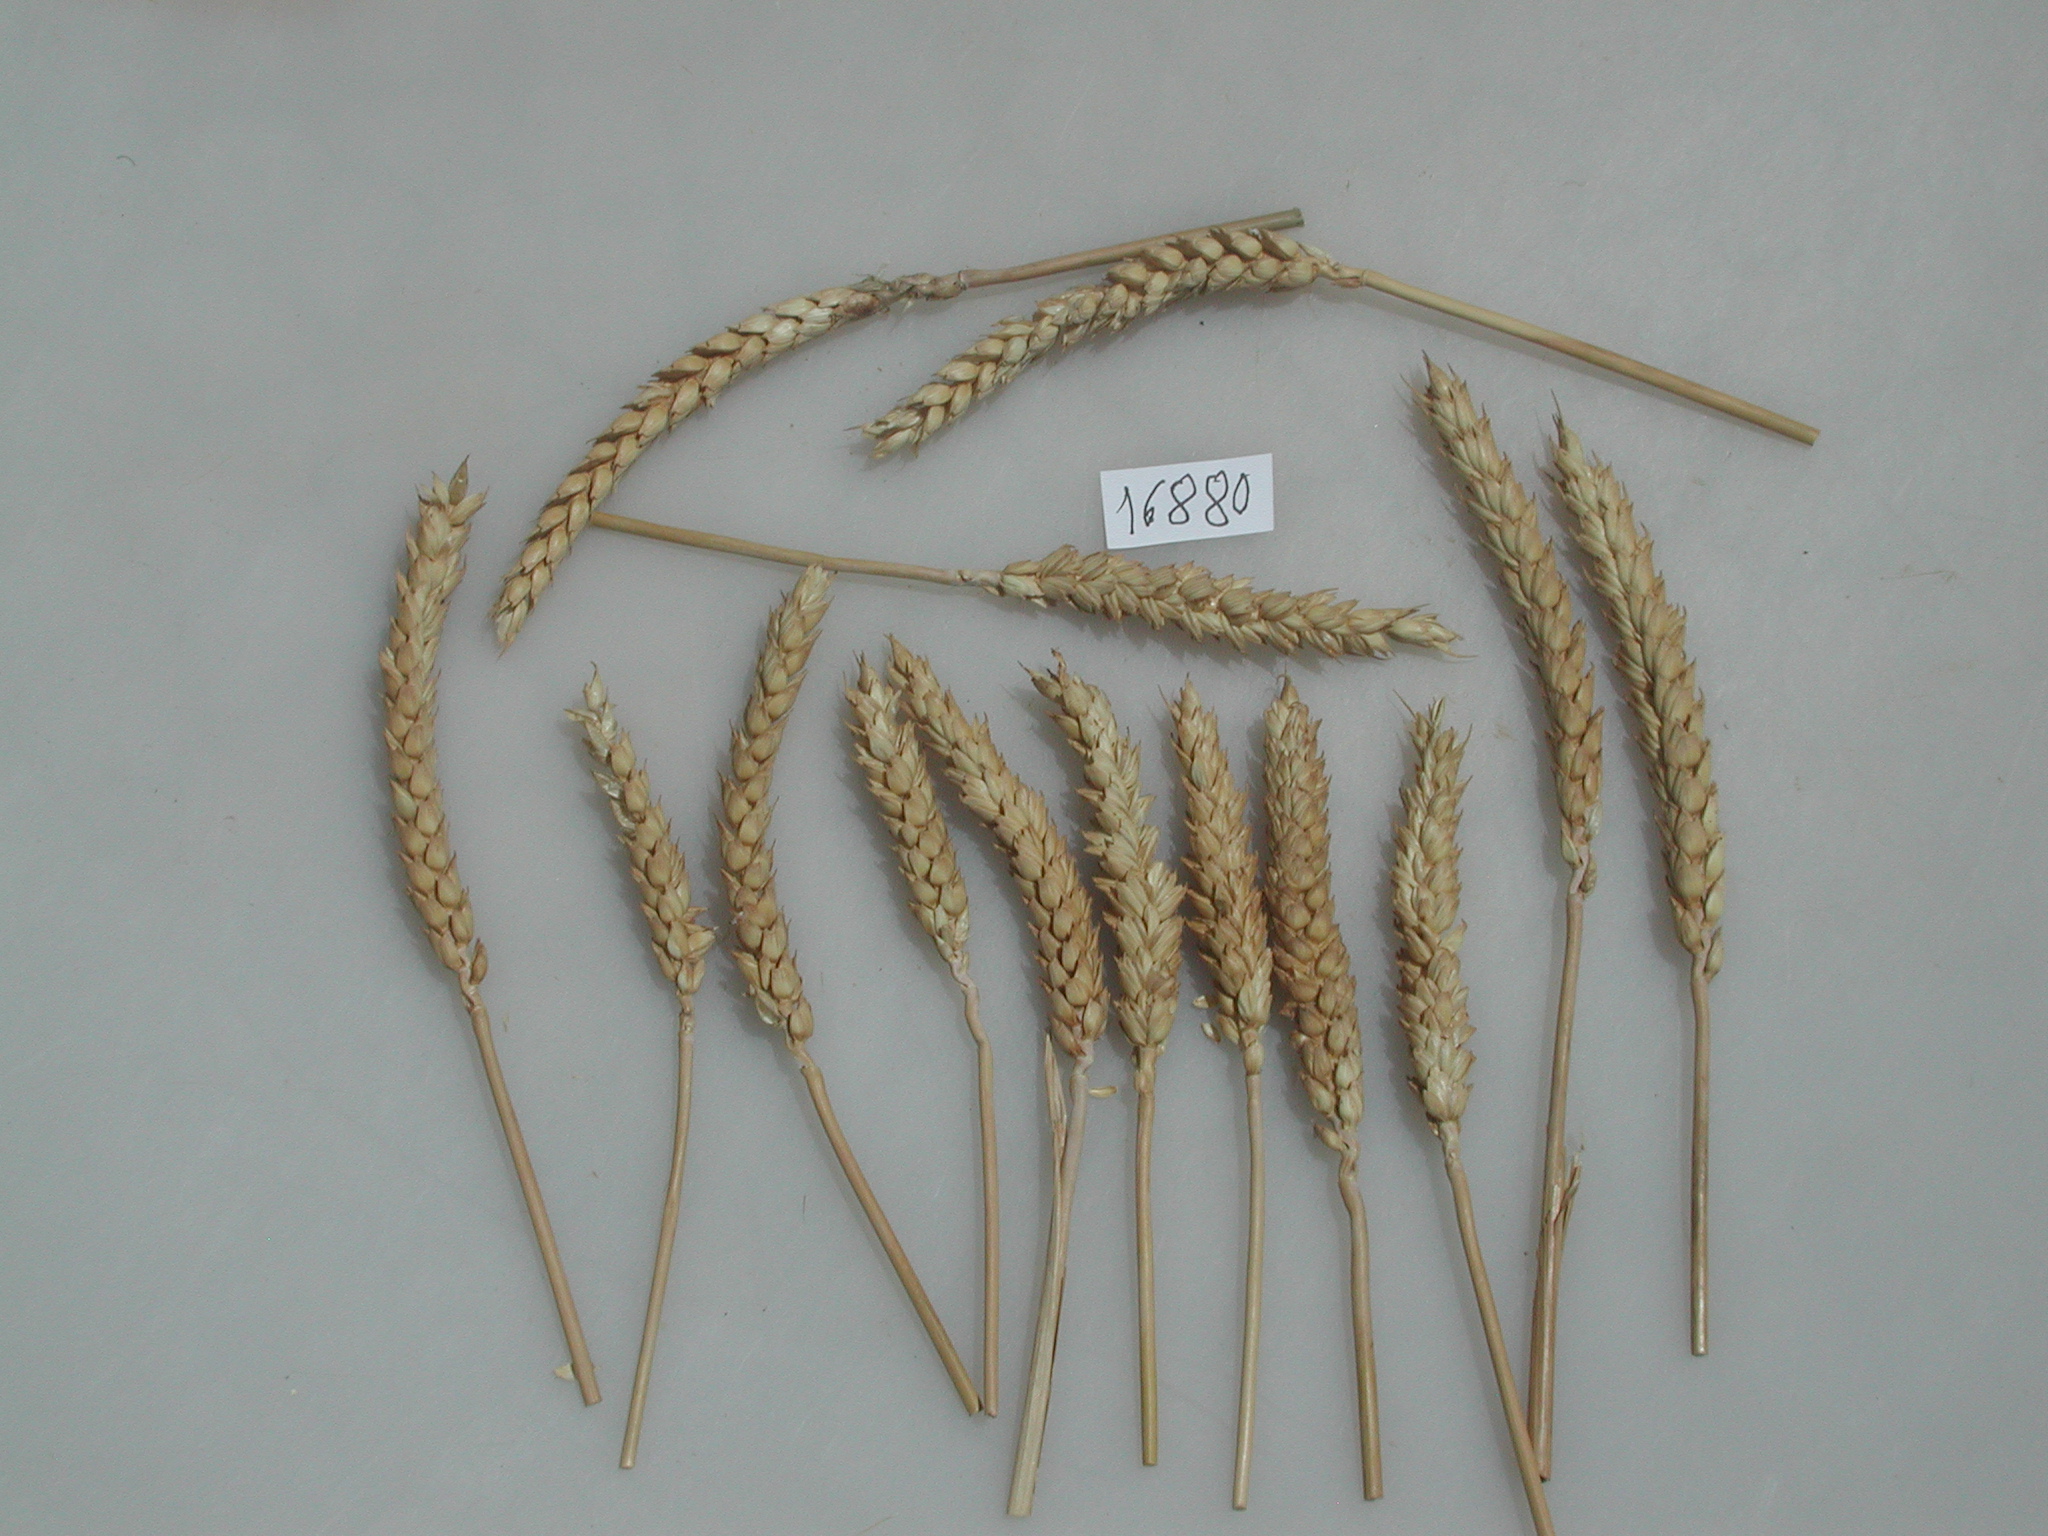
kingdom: Plantae
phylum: Tracheophyta
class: Liliopsida
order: Poales
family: Poaceae
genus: Triticum
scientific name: Triticum
